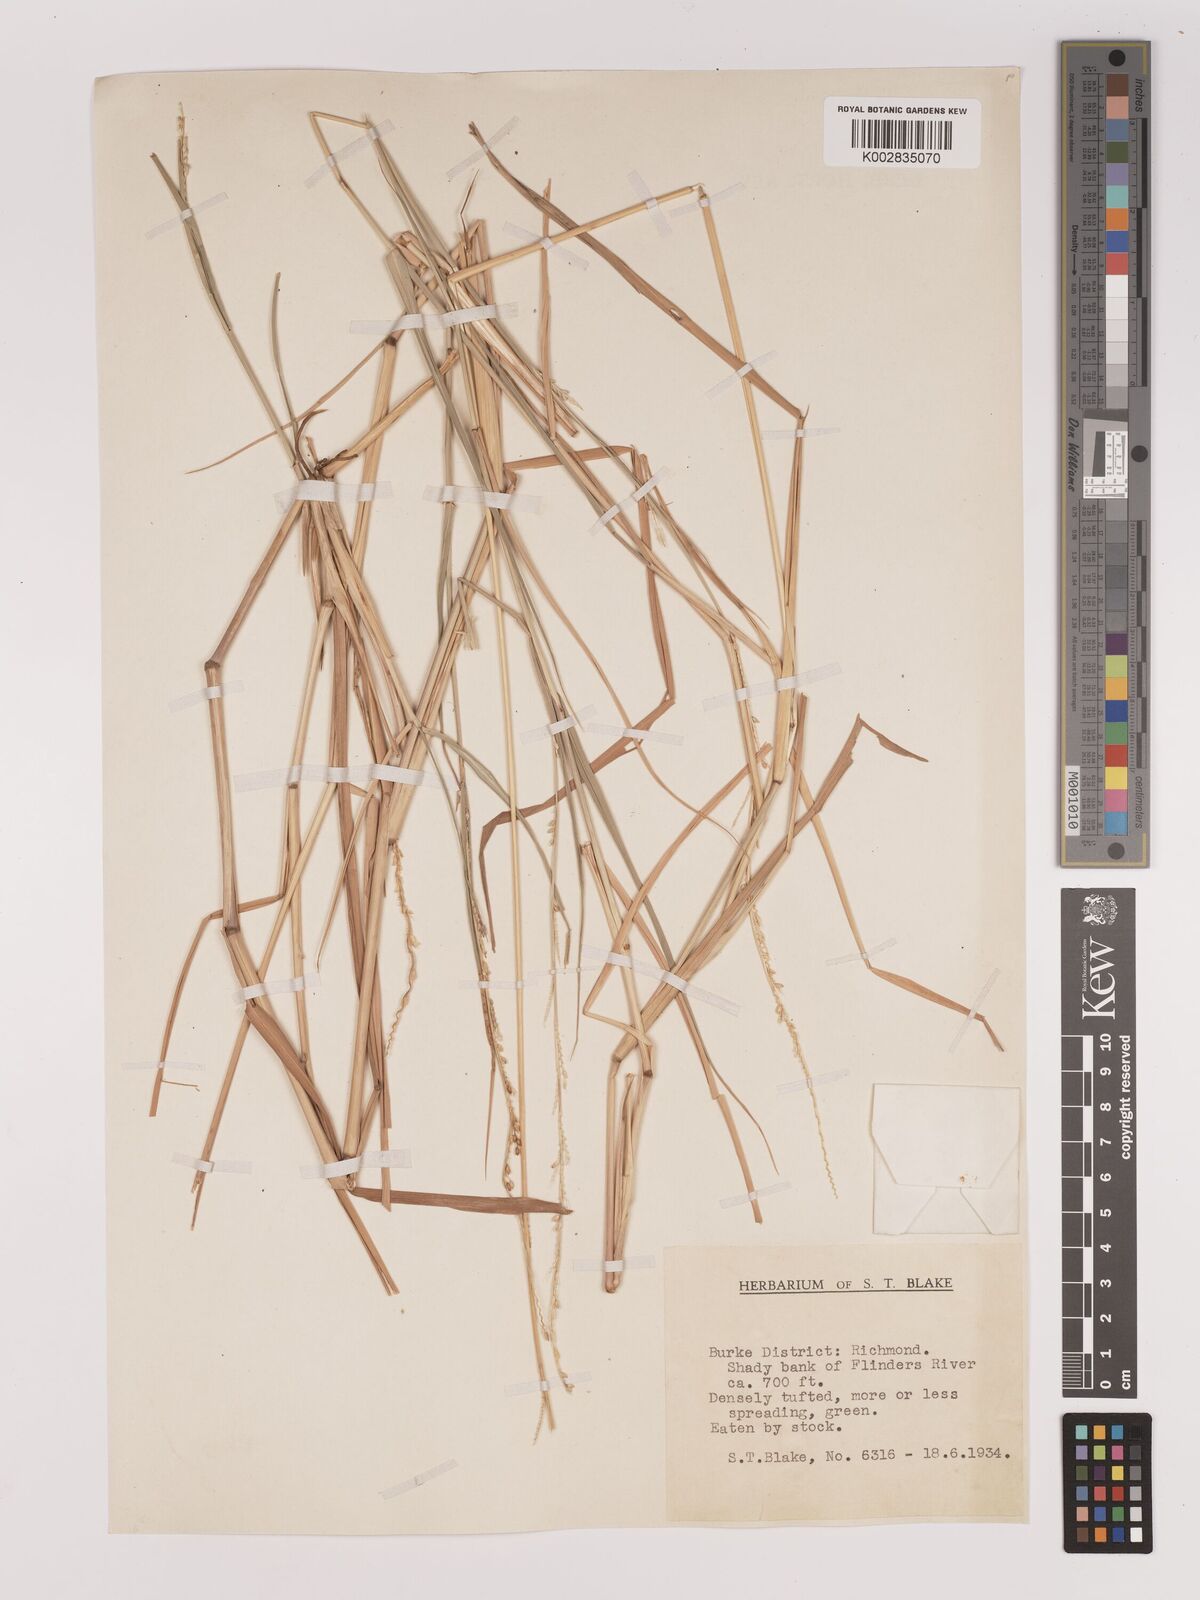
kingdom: Plantae
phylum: Tracheophyta
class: Liliopsida
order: Poales
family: Poaceae
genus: Setaria
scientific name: Setaria
